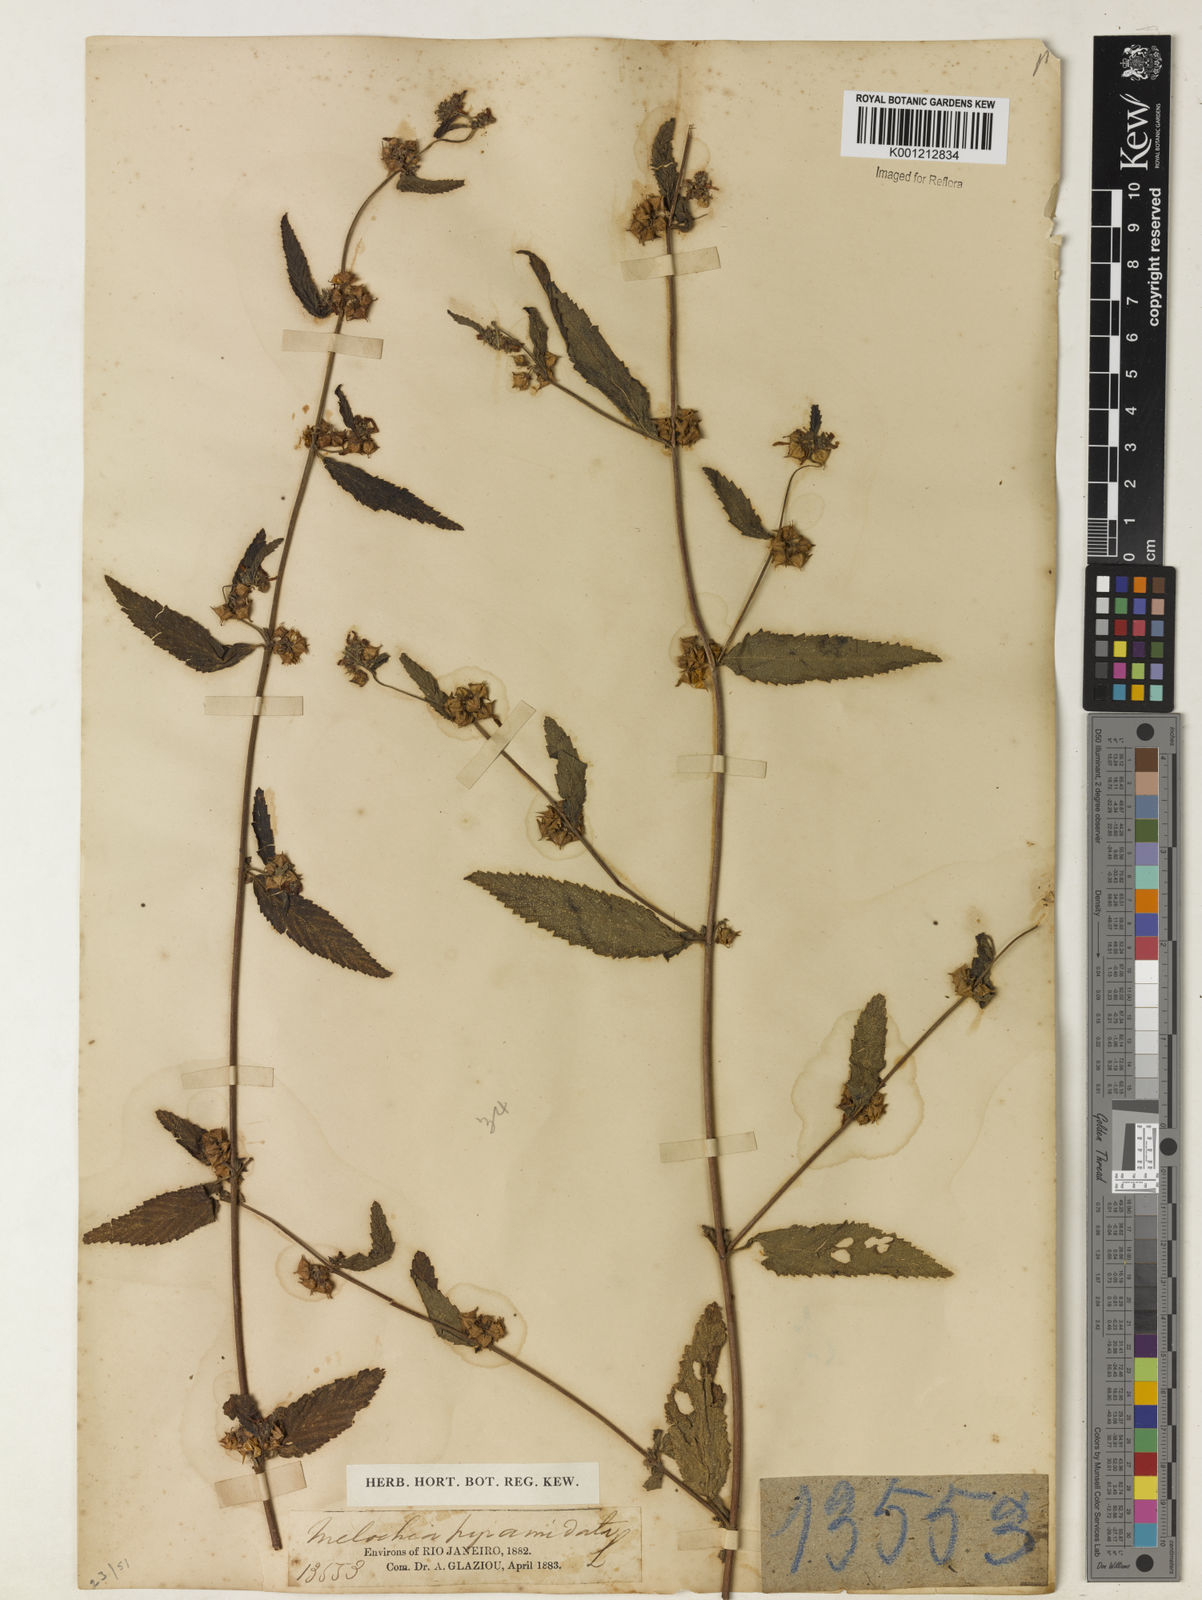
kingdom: Plantae
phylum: Tracheophyta
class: Magnoliopsida
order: Malvales
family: Malvaceae
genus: Melochia
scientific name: Melochia pyramidata
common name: Pyramidflower
